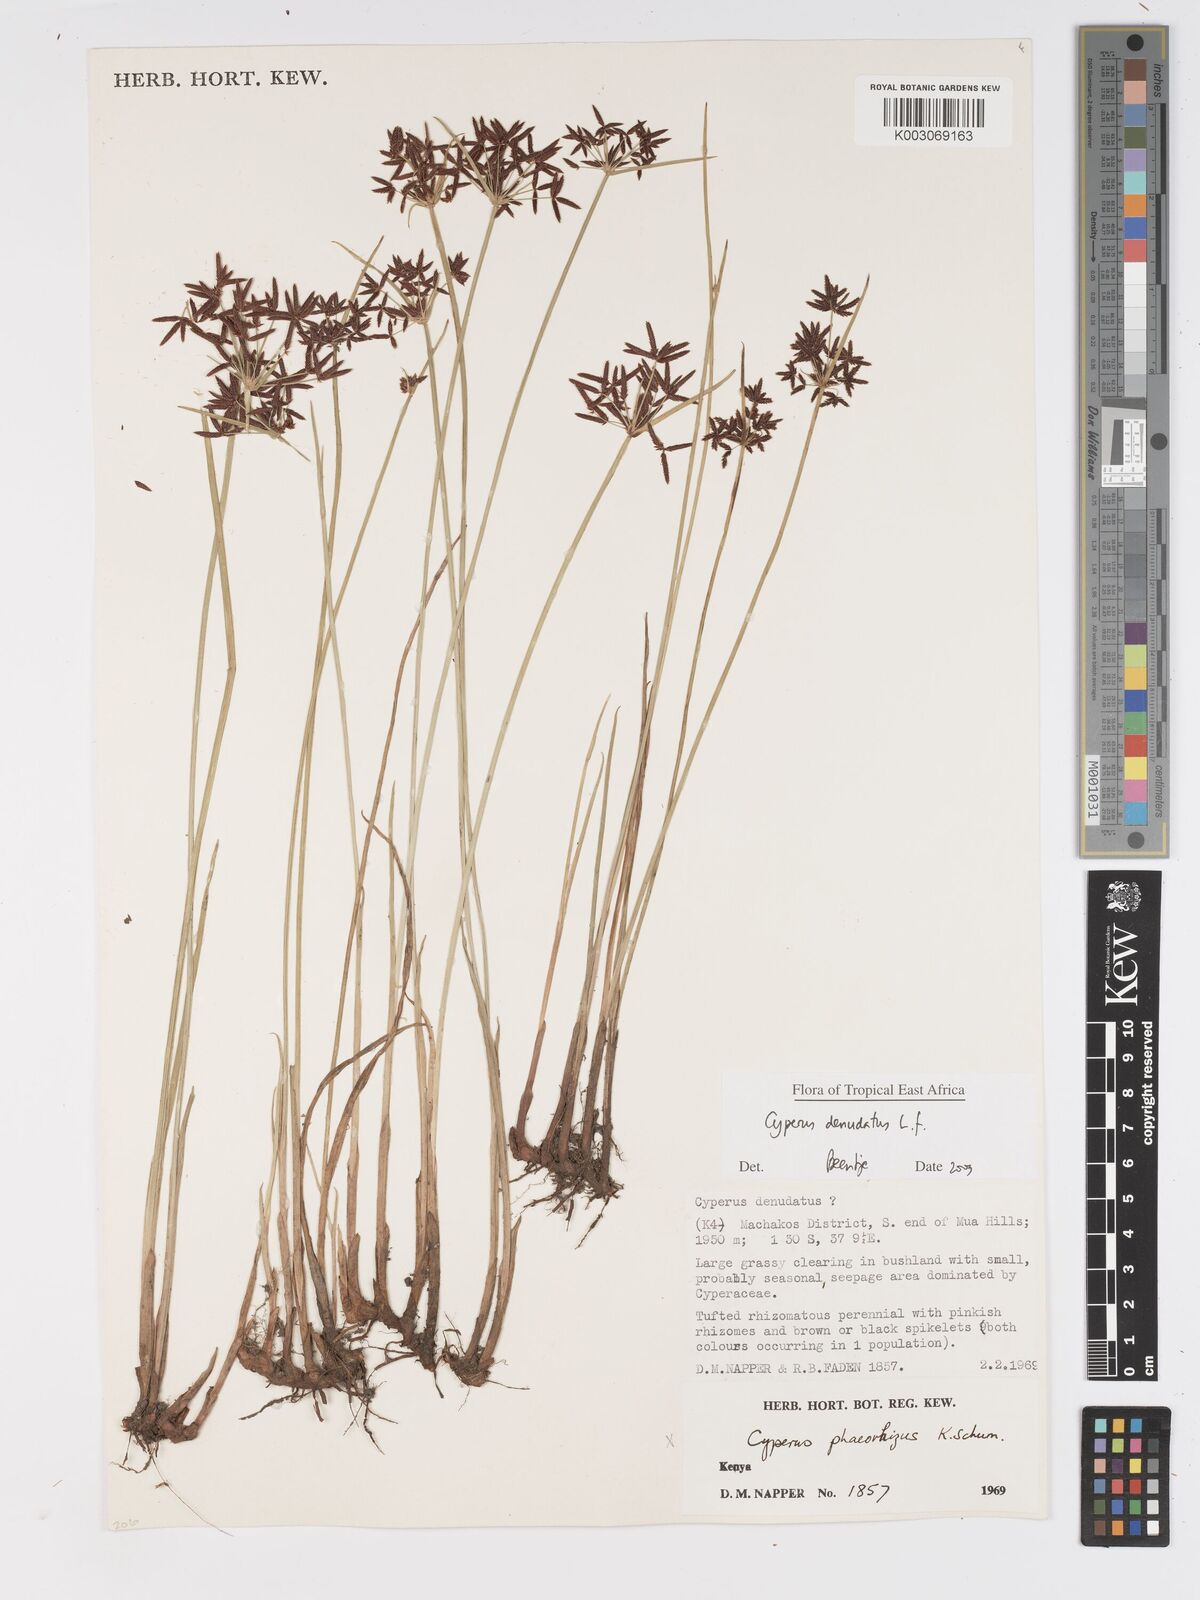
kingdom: Plantae
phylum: Tracheophyta
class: Liliopsida
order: Poales
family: Cyperaceae
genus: Cyperus
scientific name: Cyperus denudatus
